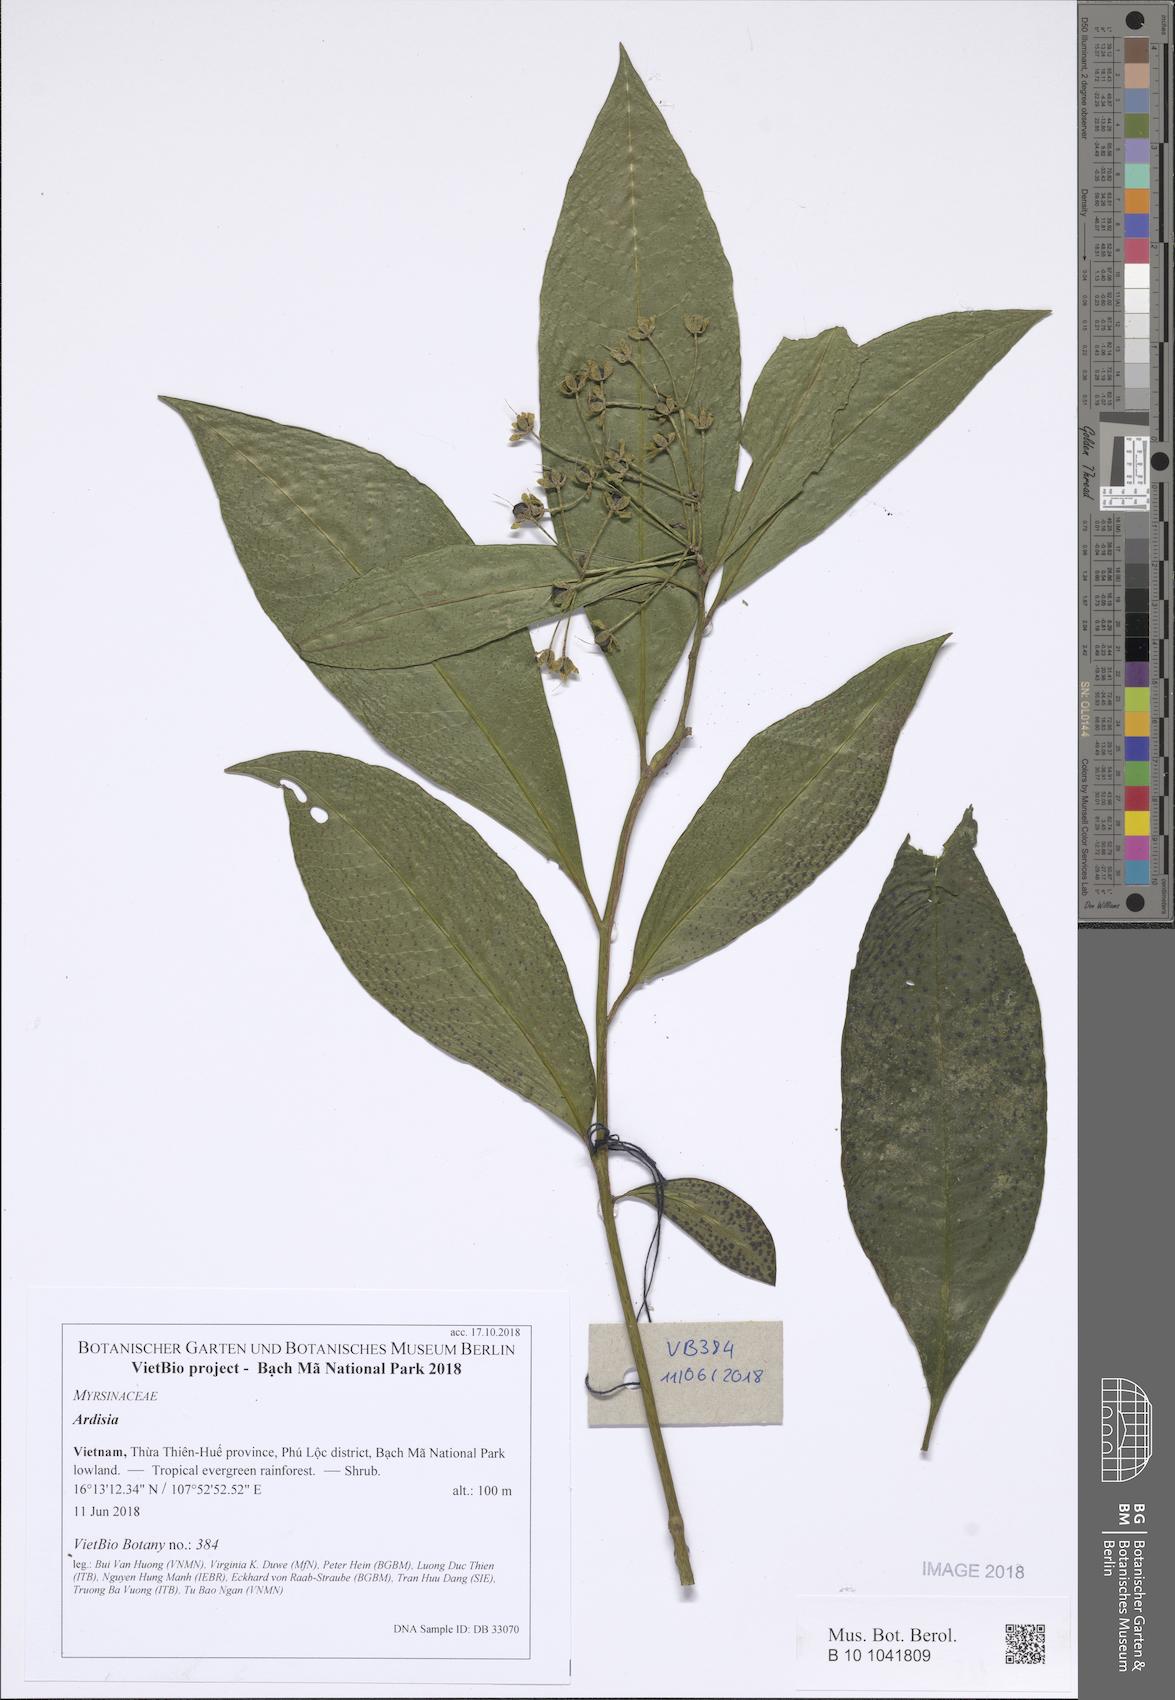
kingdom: Plantae
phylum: Tracheophyta
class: Magnoliopsida
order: Ericales
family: Primulaceae
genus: Ardisia
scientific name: Ardisia hanceana
